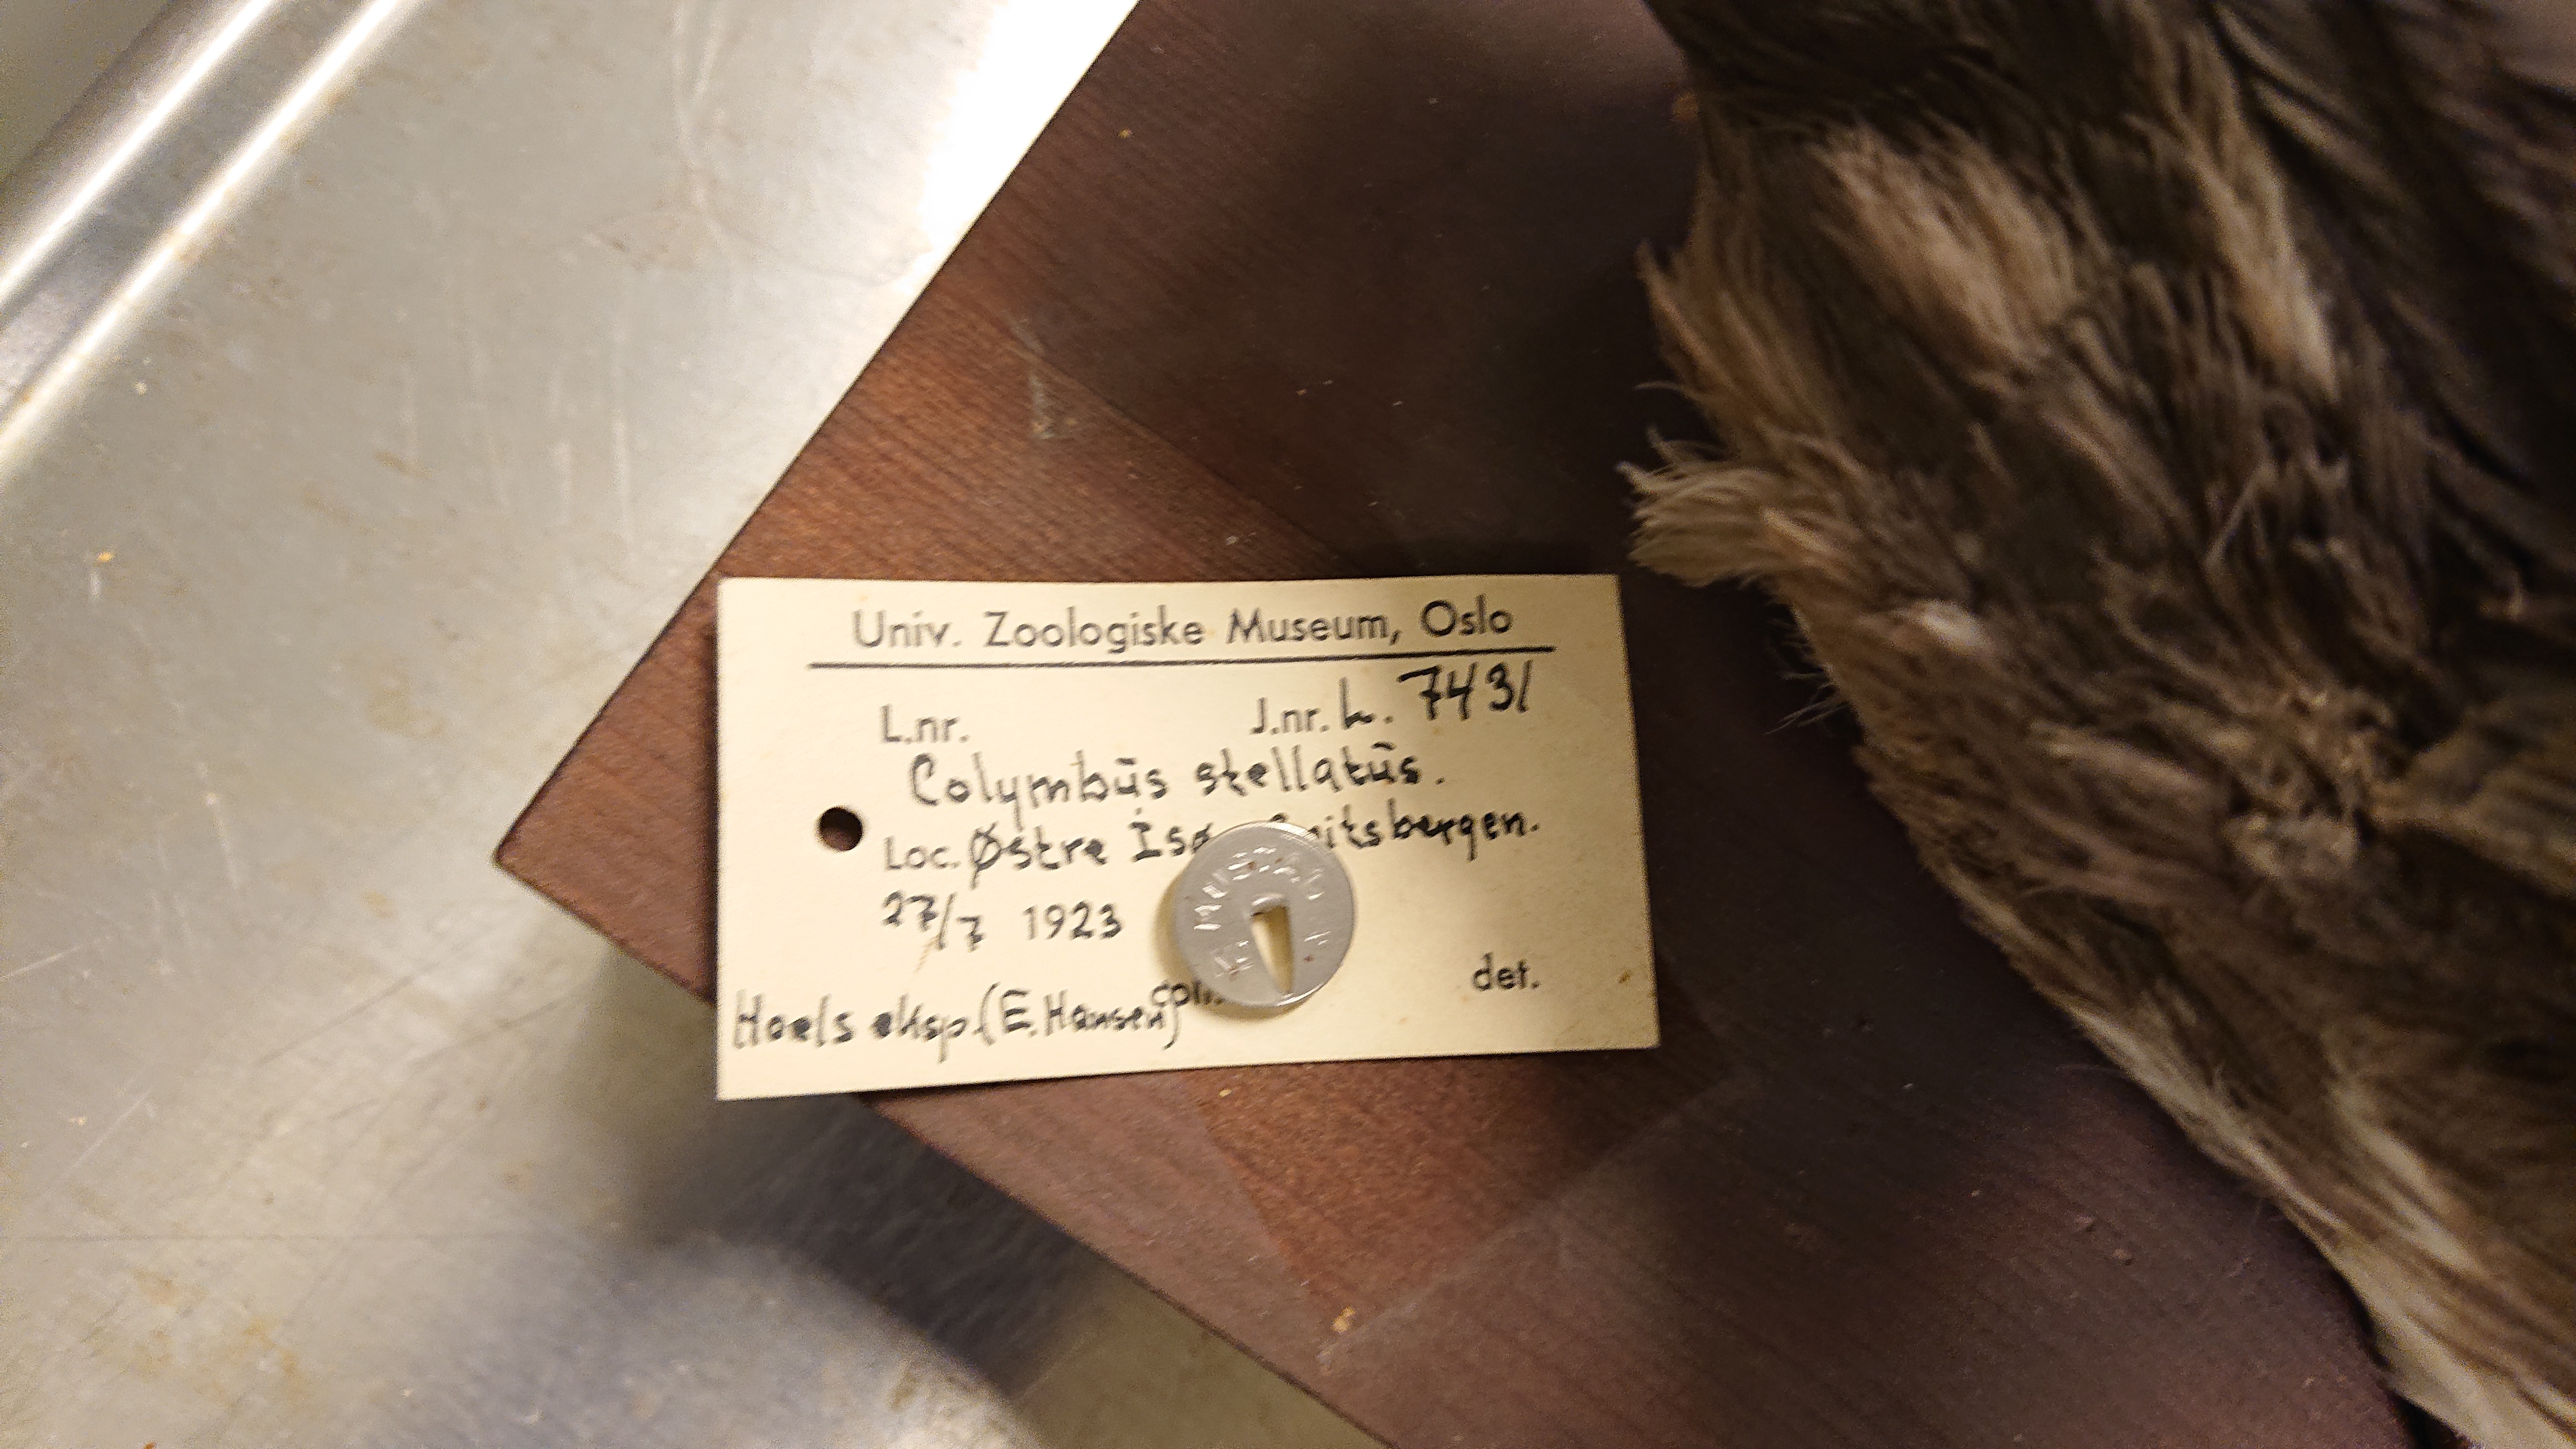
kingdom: Animalia
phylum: Chordata
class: Aves
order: Gaviiformes
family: Gaviidae
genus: Gavia
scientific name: Gavia stellata
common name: Red-throated loon
